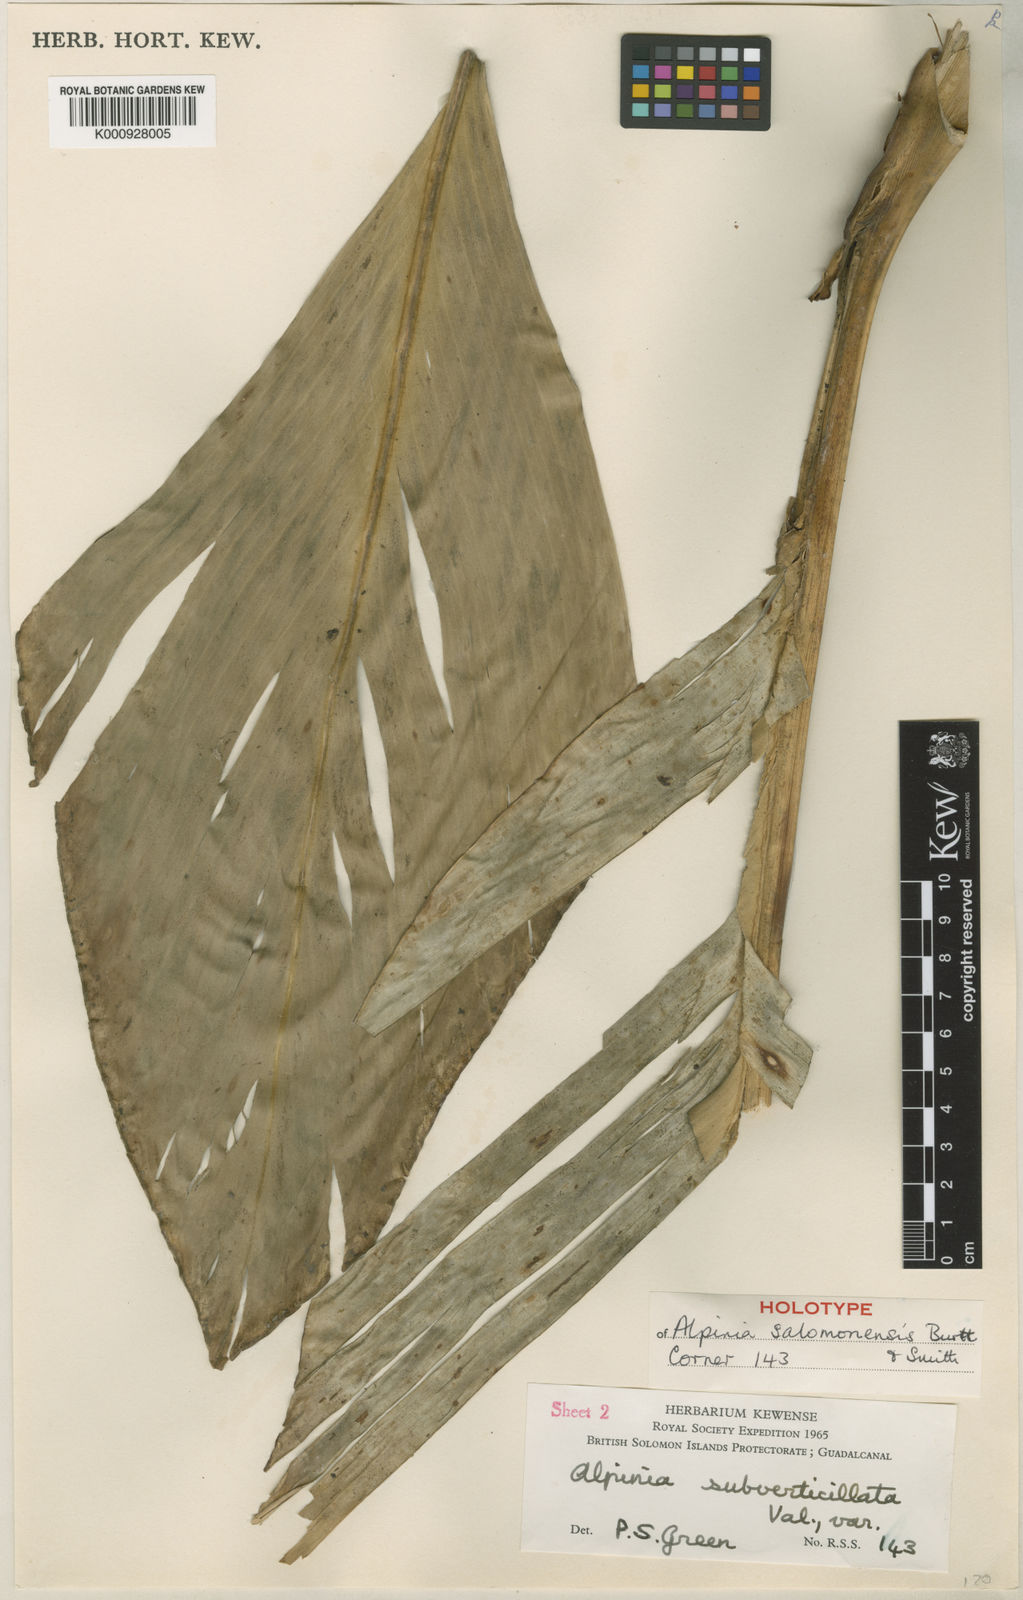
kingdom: Plantae
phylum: Tracheophyta
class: Liliopsida
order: Zingiberales
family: Zingiberaceae
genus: Alpinia
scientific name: Alpinia salomonensis
